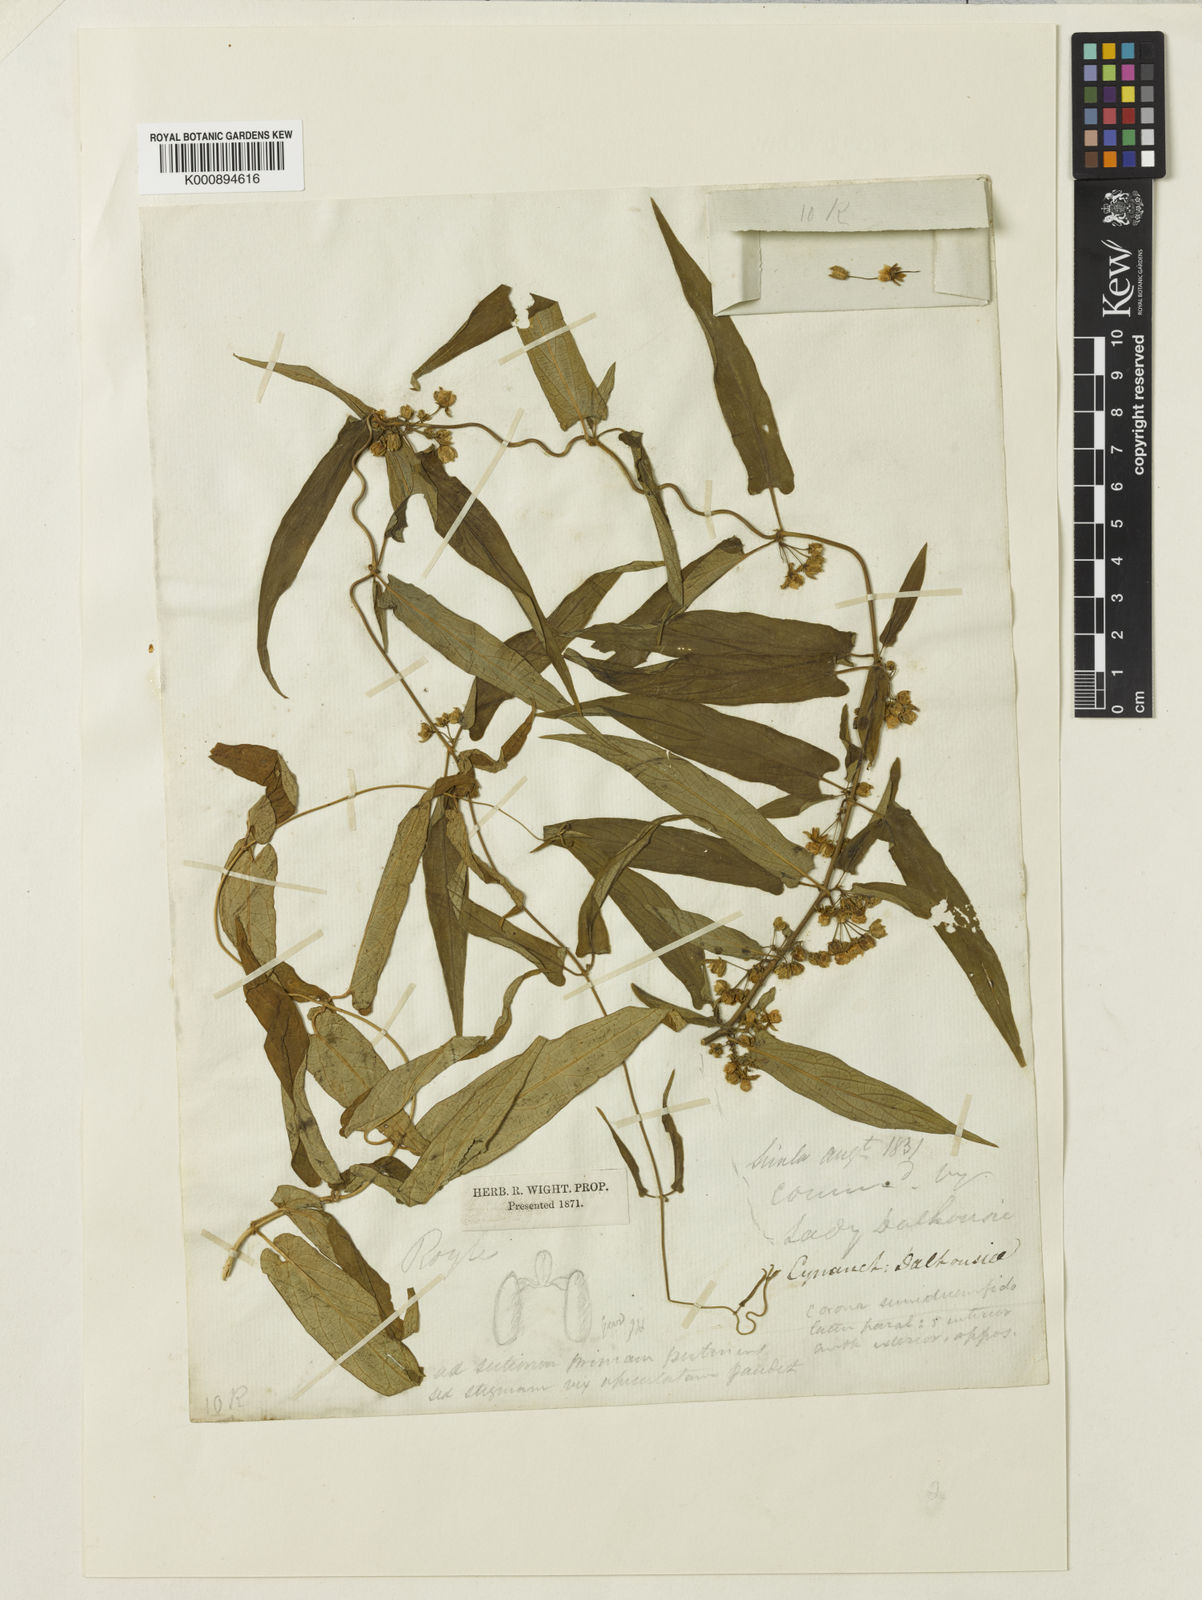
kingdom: Plantae
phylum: Tracheophyta
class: Magnoliopsida
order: Gentianales
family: Apocynaceae
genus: Cynanchum
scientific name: Cynanchum
